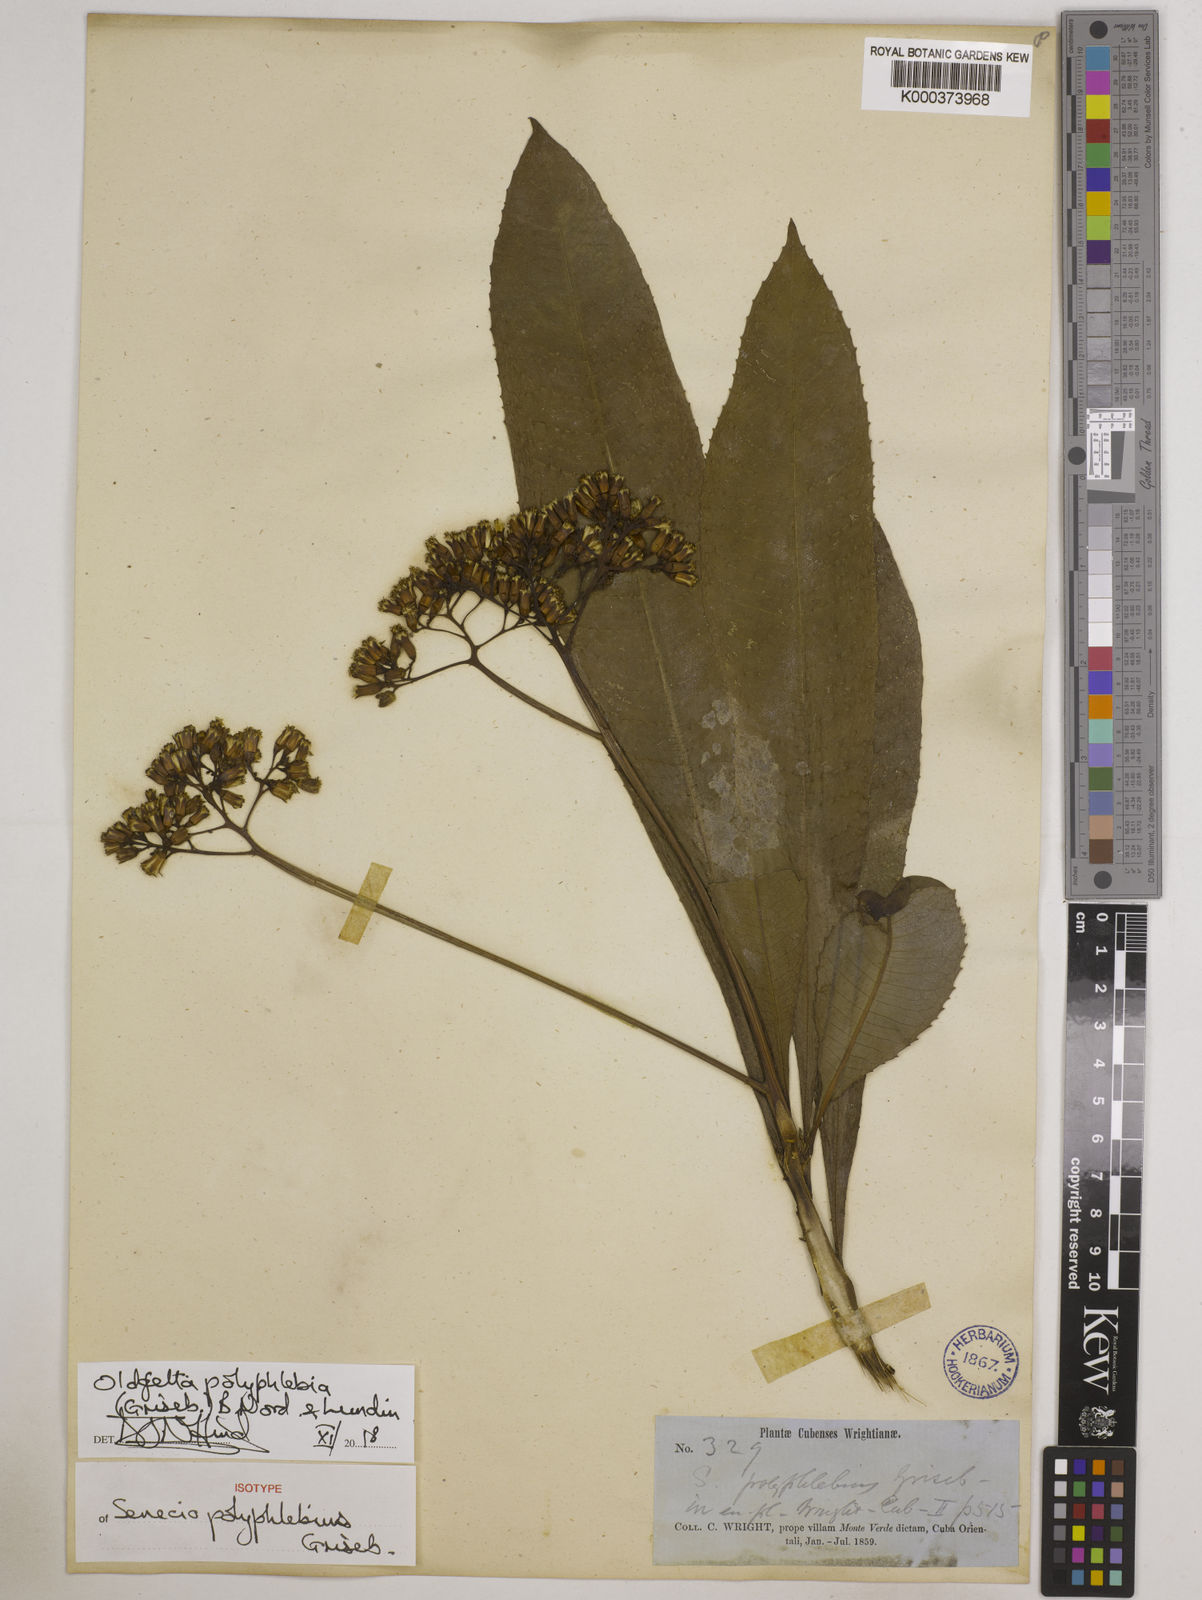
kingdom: Plantae
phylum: Tracheophyta
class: Magnoliopsida
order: Asterales
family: Asteraceae
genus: Oldfeltia
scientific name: Oldfeltia polyphlebia
